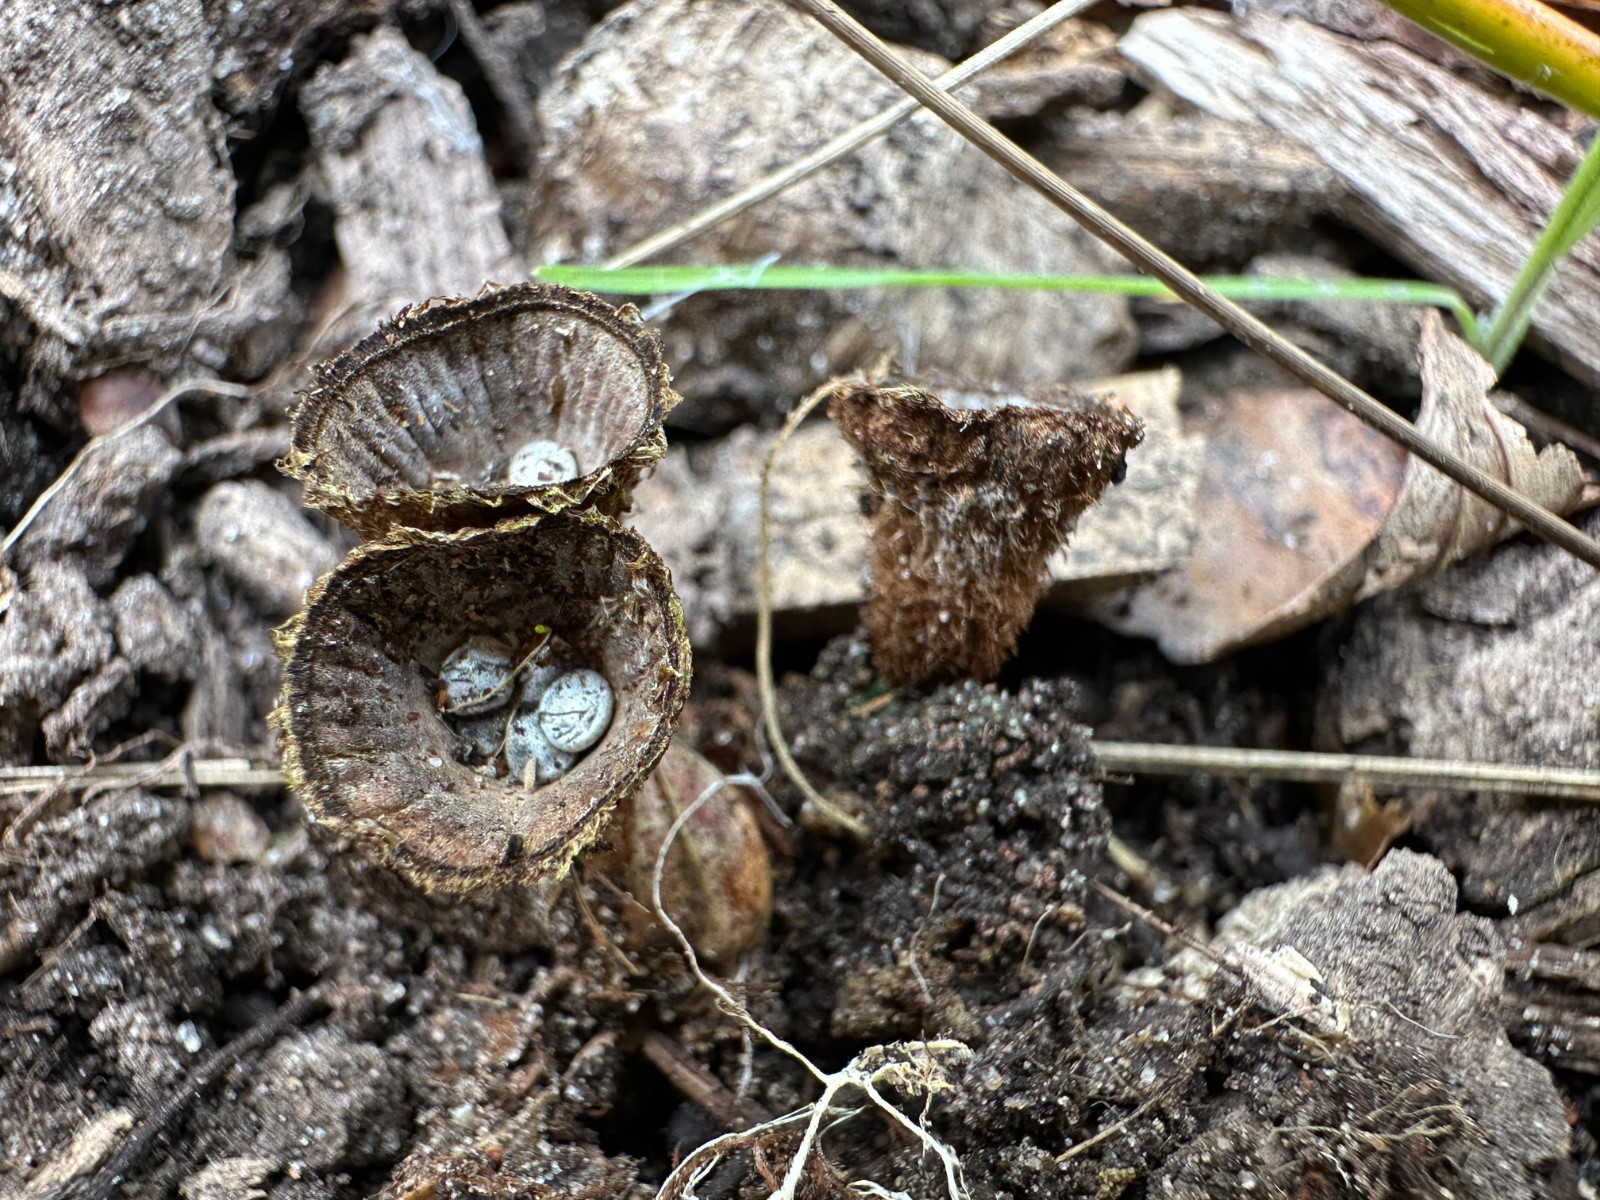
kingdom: Fungi
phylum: Basidiomycota
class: Agaricomycetes
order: Agaricales
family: Agaricaceae
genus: Cyathus
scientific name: Cyathus striatus
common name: stribet redesvamp
